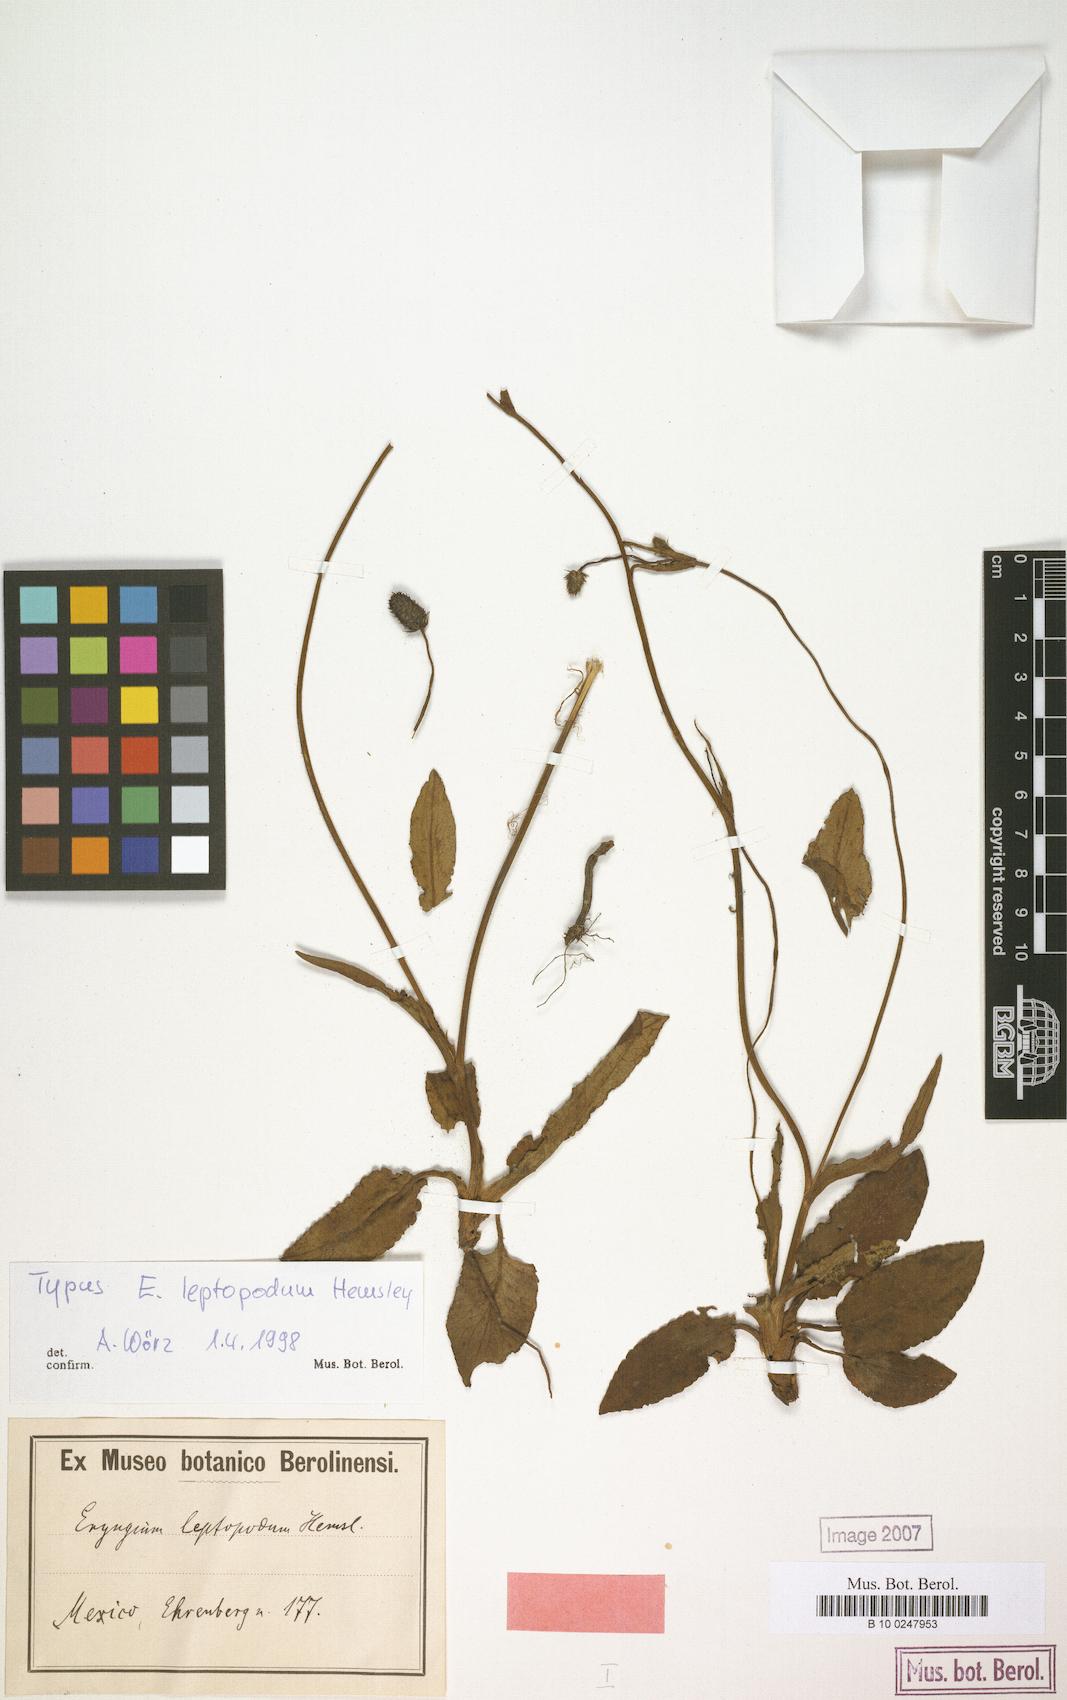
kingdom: Plantae
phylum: Tracheophyta
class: Magnoliopsida
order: Apiales
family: Apiaceae
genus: Eryngium
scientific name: Eryngium bonplandii
